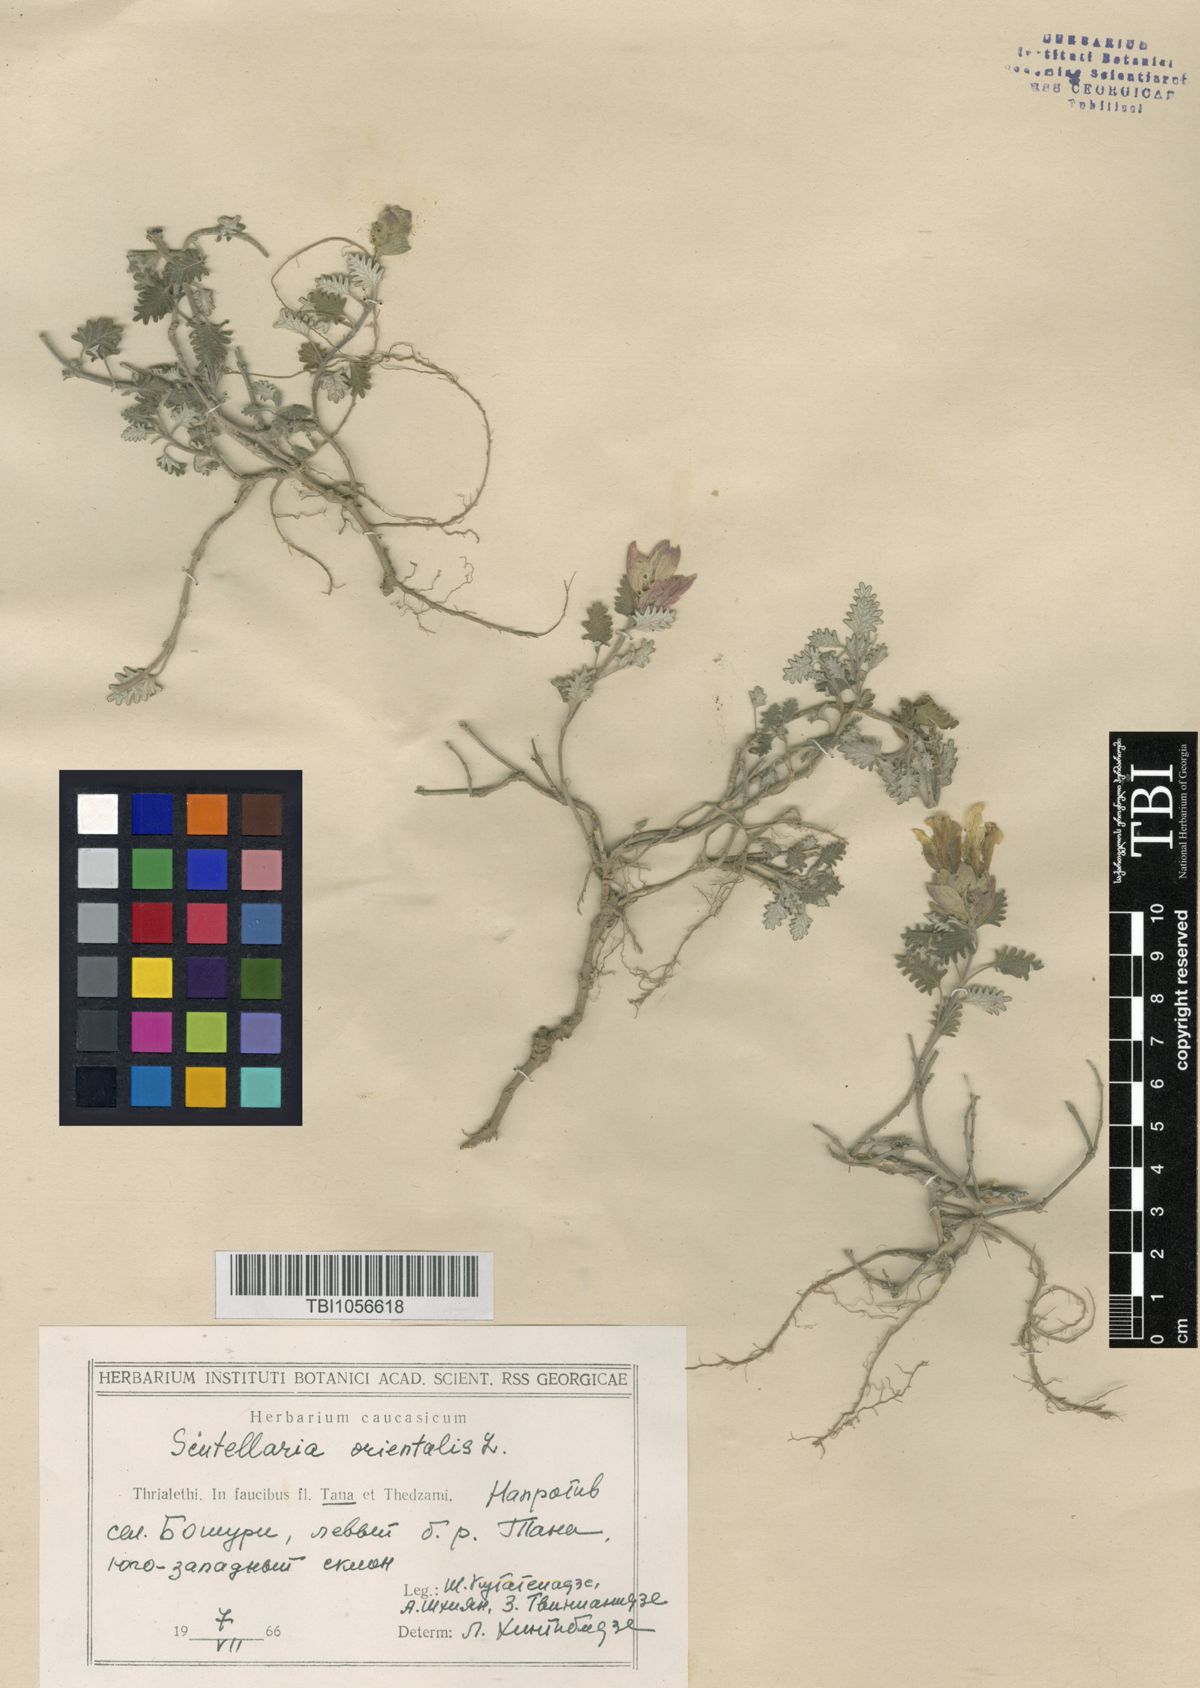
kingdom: Plantae
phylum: Tracheophyta
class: Magnoliopsida
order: Lamiales
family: Lamiaceae
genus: Scutellaria
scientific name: Scutellaria orientalis
